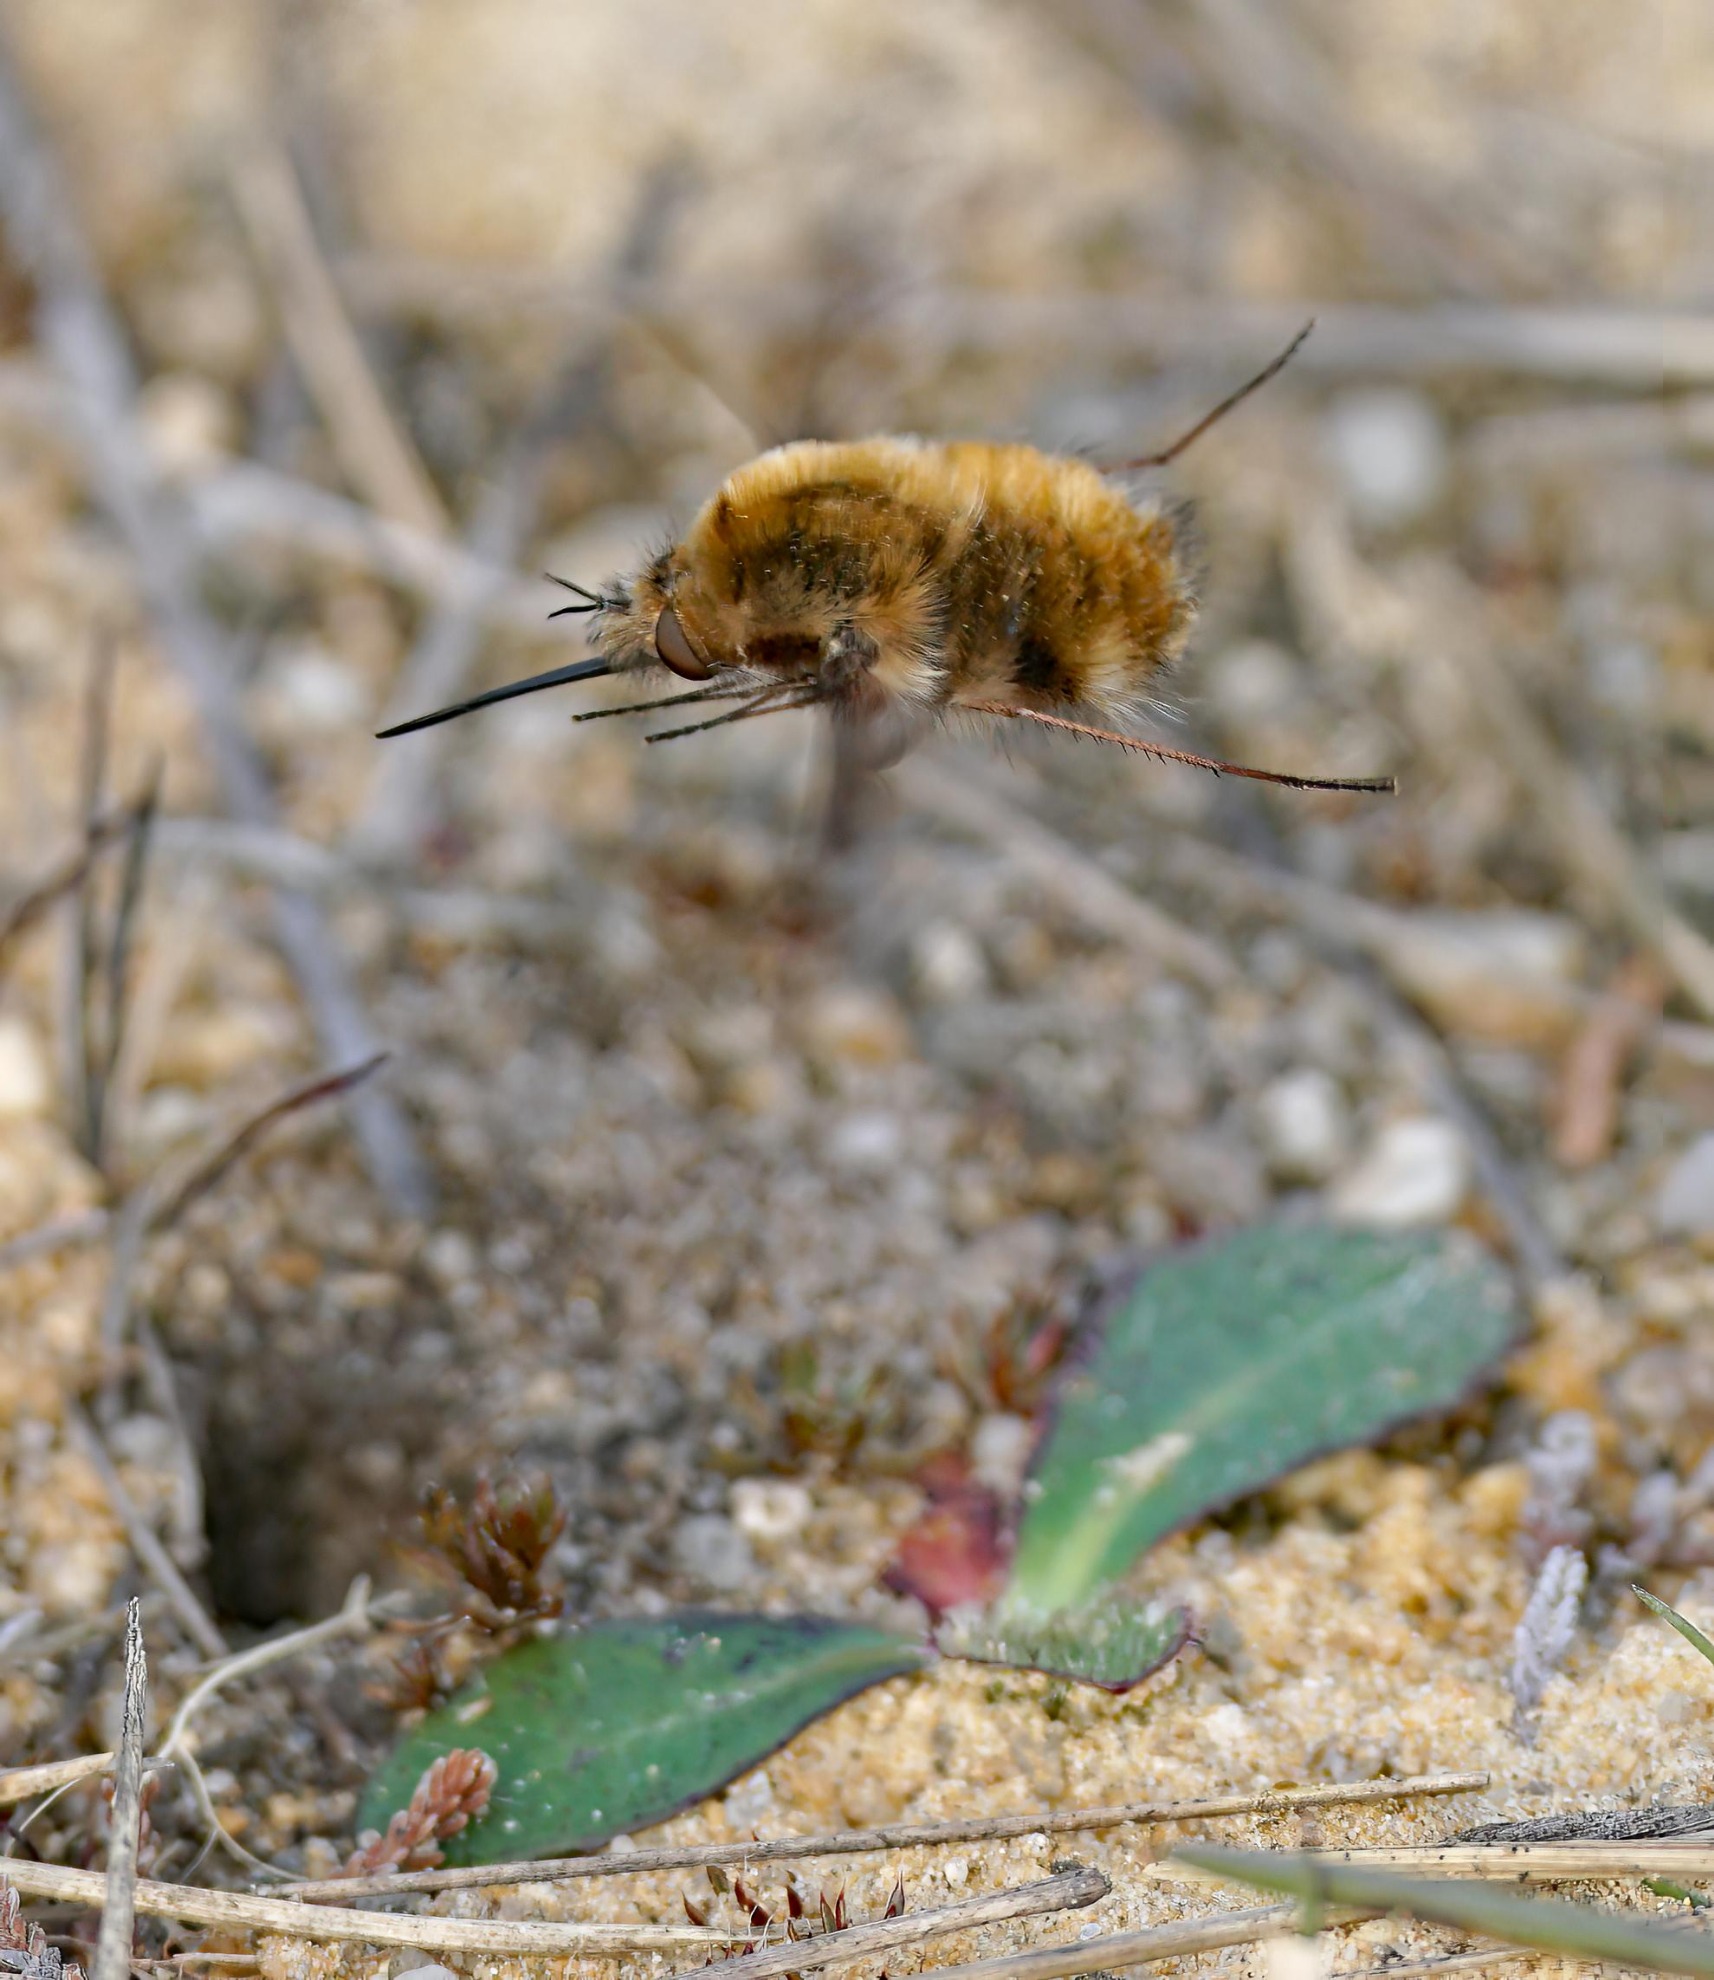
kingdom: Animalia
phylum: Arthropoda
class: Insecta
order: Diptera
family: Bombyliidae
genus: Bombylius
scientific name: Bombylius major
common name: Stor humleflue
